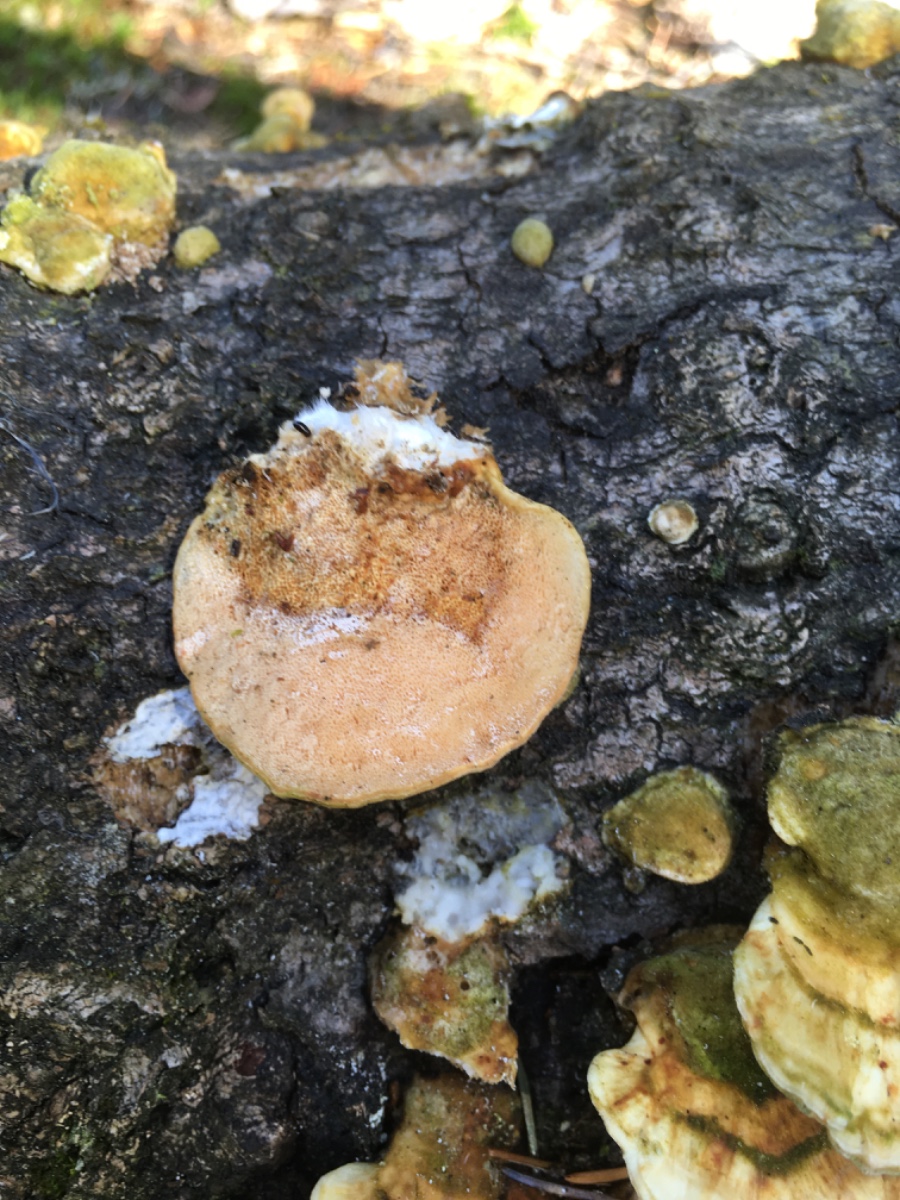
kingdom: Fungi
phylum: Basidiomycota
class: Agaricomycetes
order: Polyporales
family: Polyporaceae
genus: Trametes
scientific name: Trametes ochracea
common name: bæltet læderporesvamp
